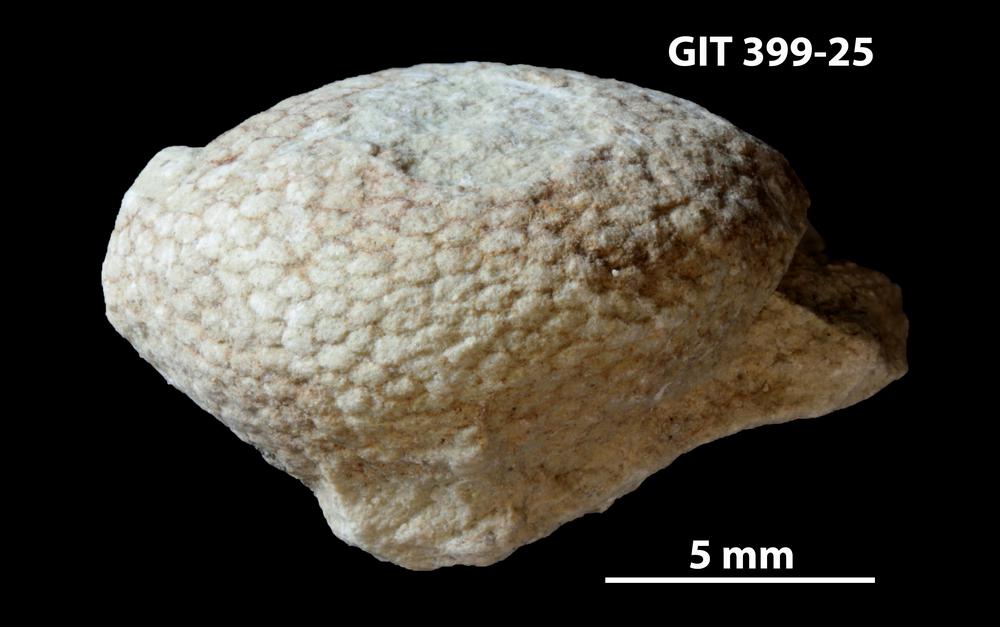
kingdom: Plantae
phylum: Chlorophyta
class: Ulvophyceae
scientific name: Ulvophyceae
